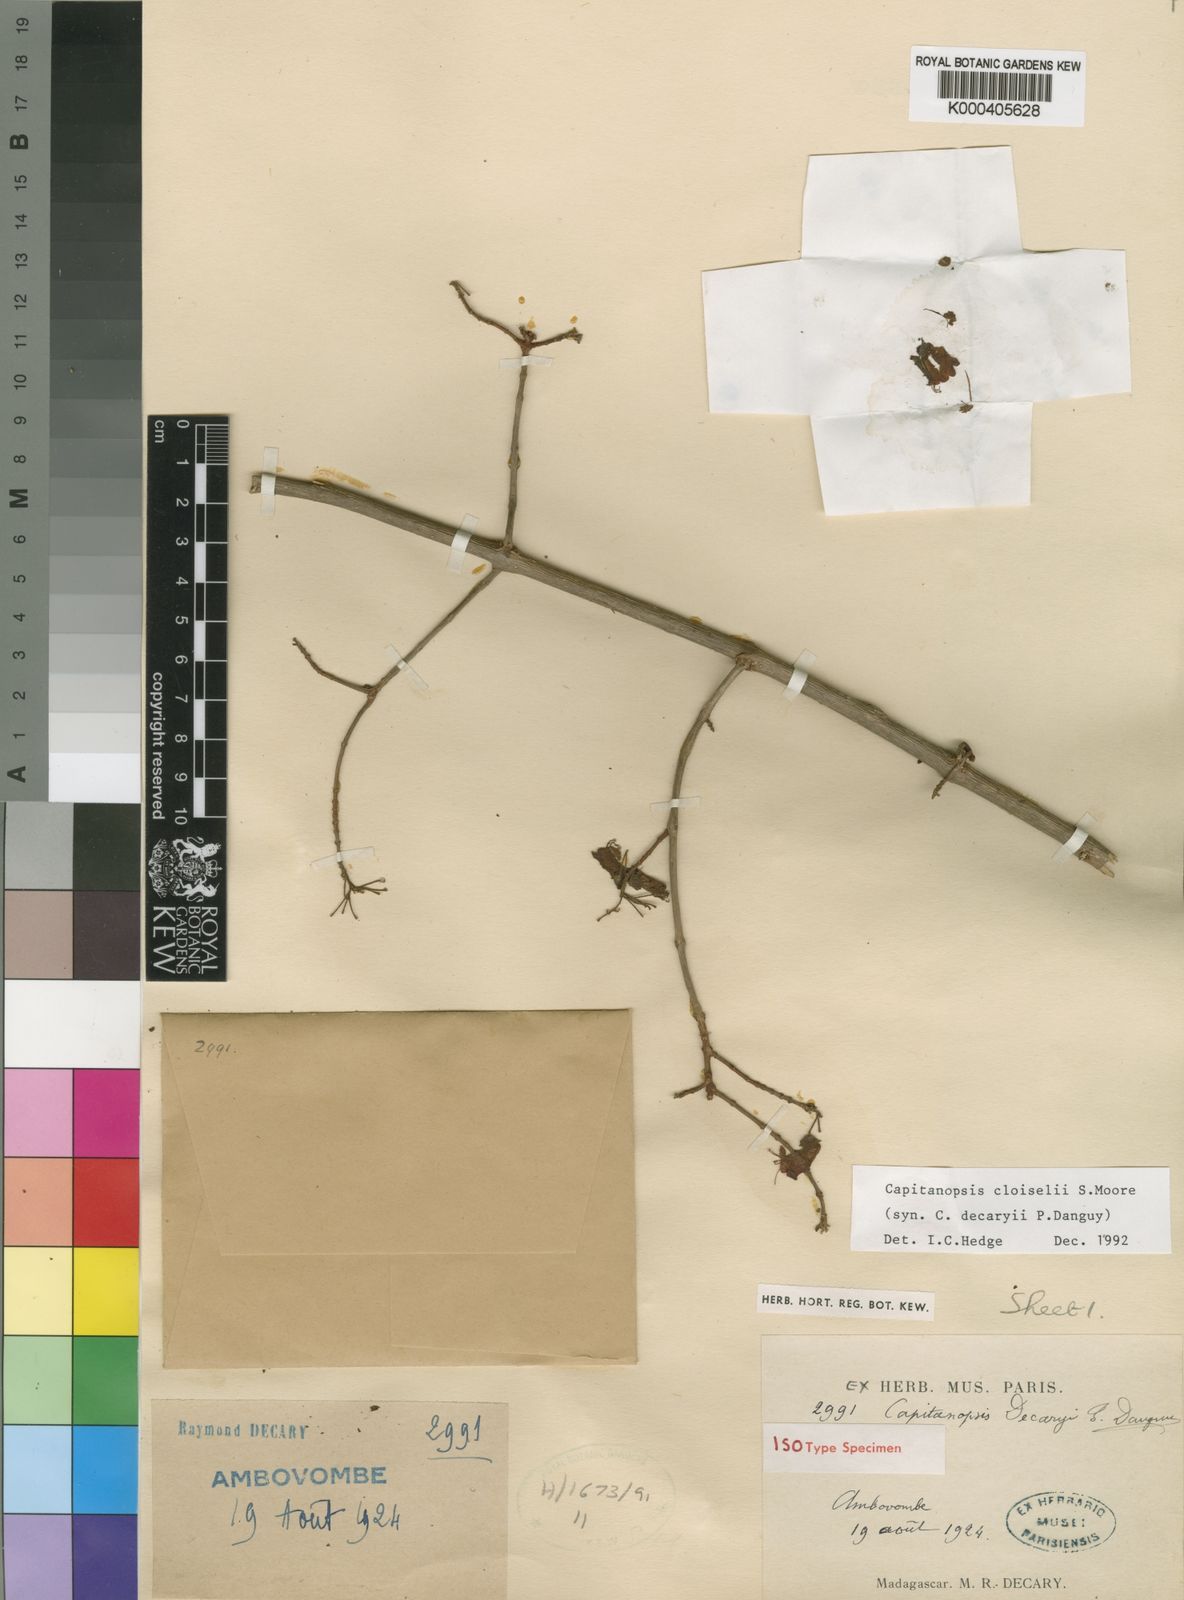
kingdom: Plantae
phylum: Tracheophyta
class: Magnoliopsida
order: Lamiales
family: Lamiaceae
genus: Capitanopsis
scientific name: Capitanopsis cloiselii
